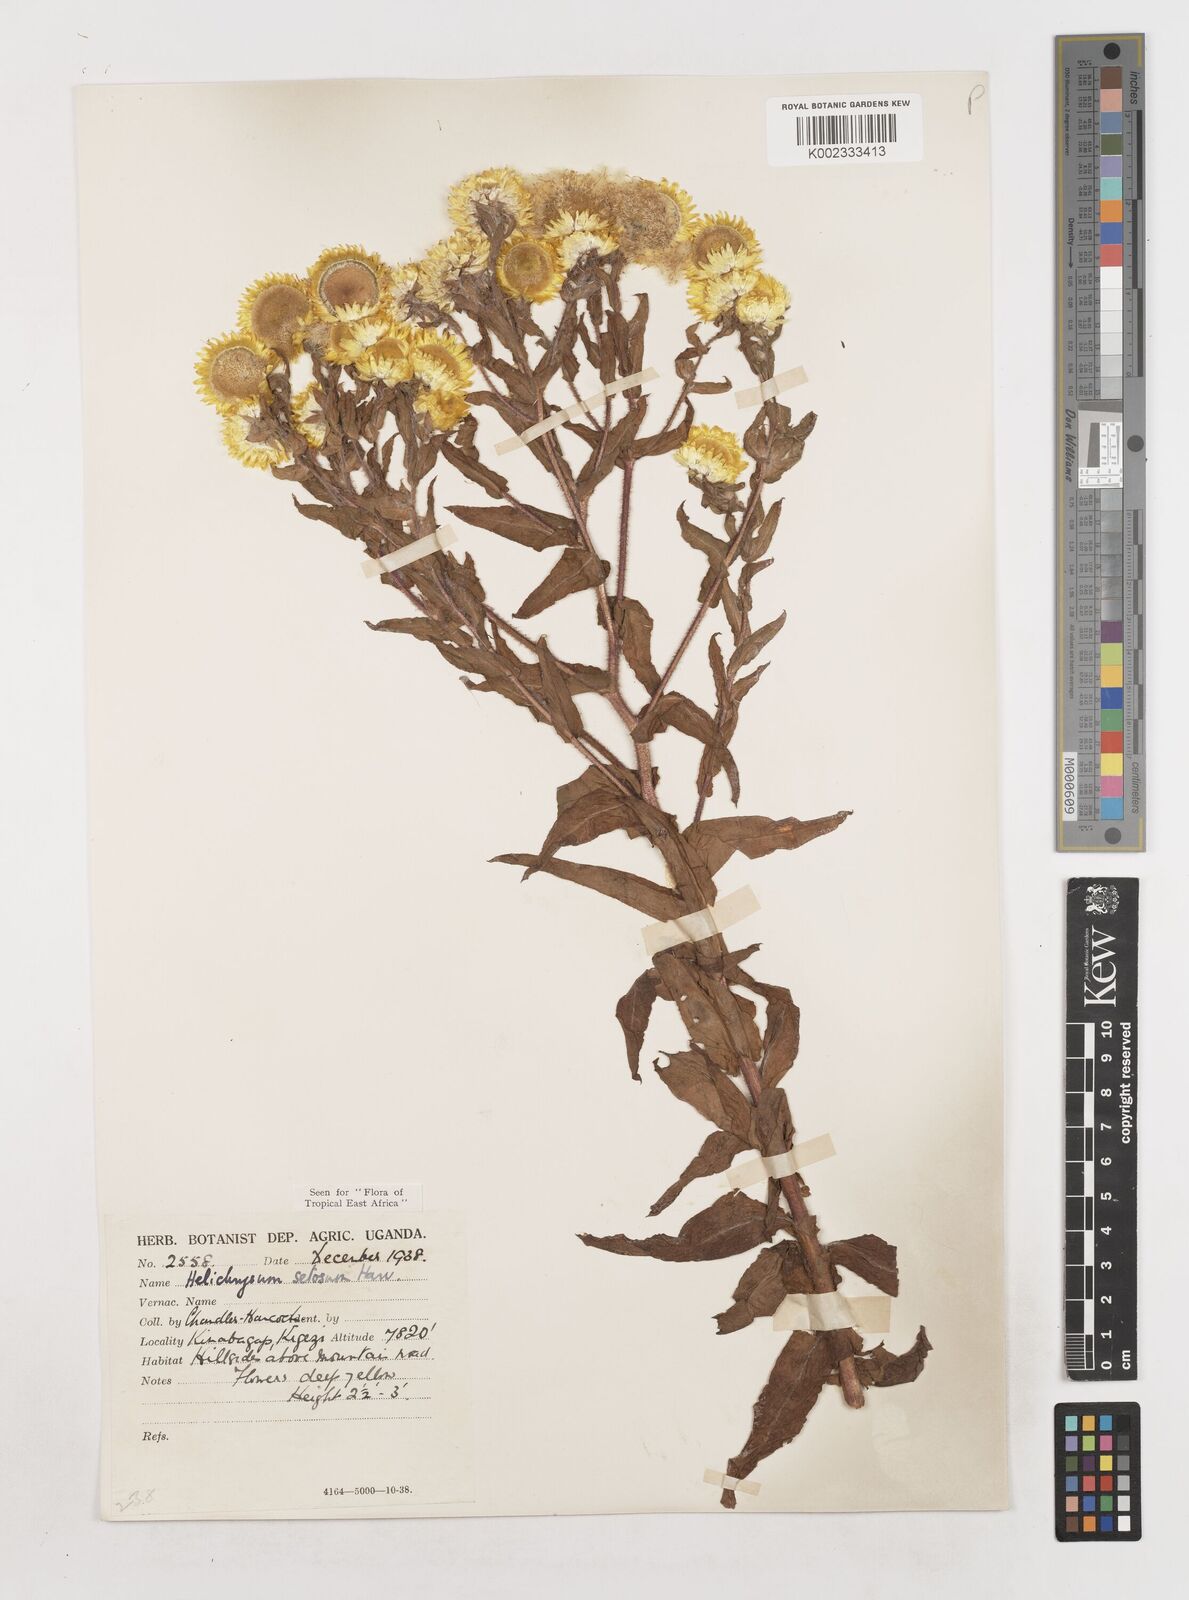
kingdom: Plantae
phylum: Tracheophyta
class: Magnoliopsida
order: Asterales
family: Asteraceae
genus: Helichrysum
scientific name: Helichrysum setosum
